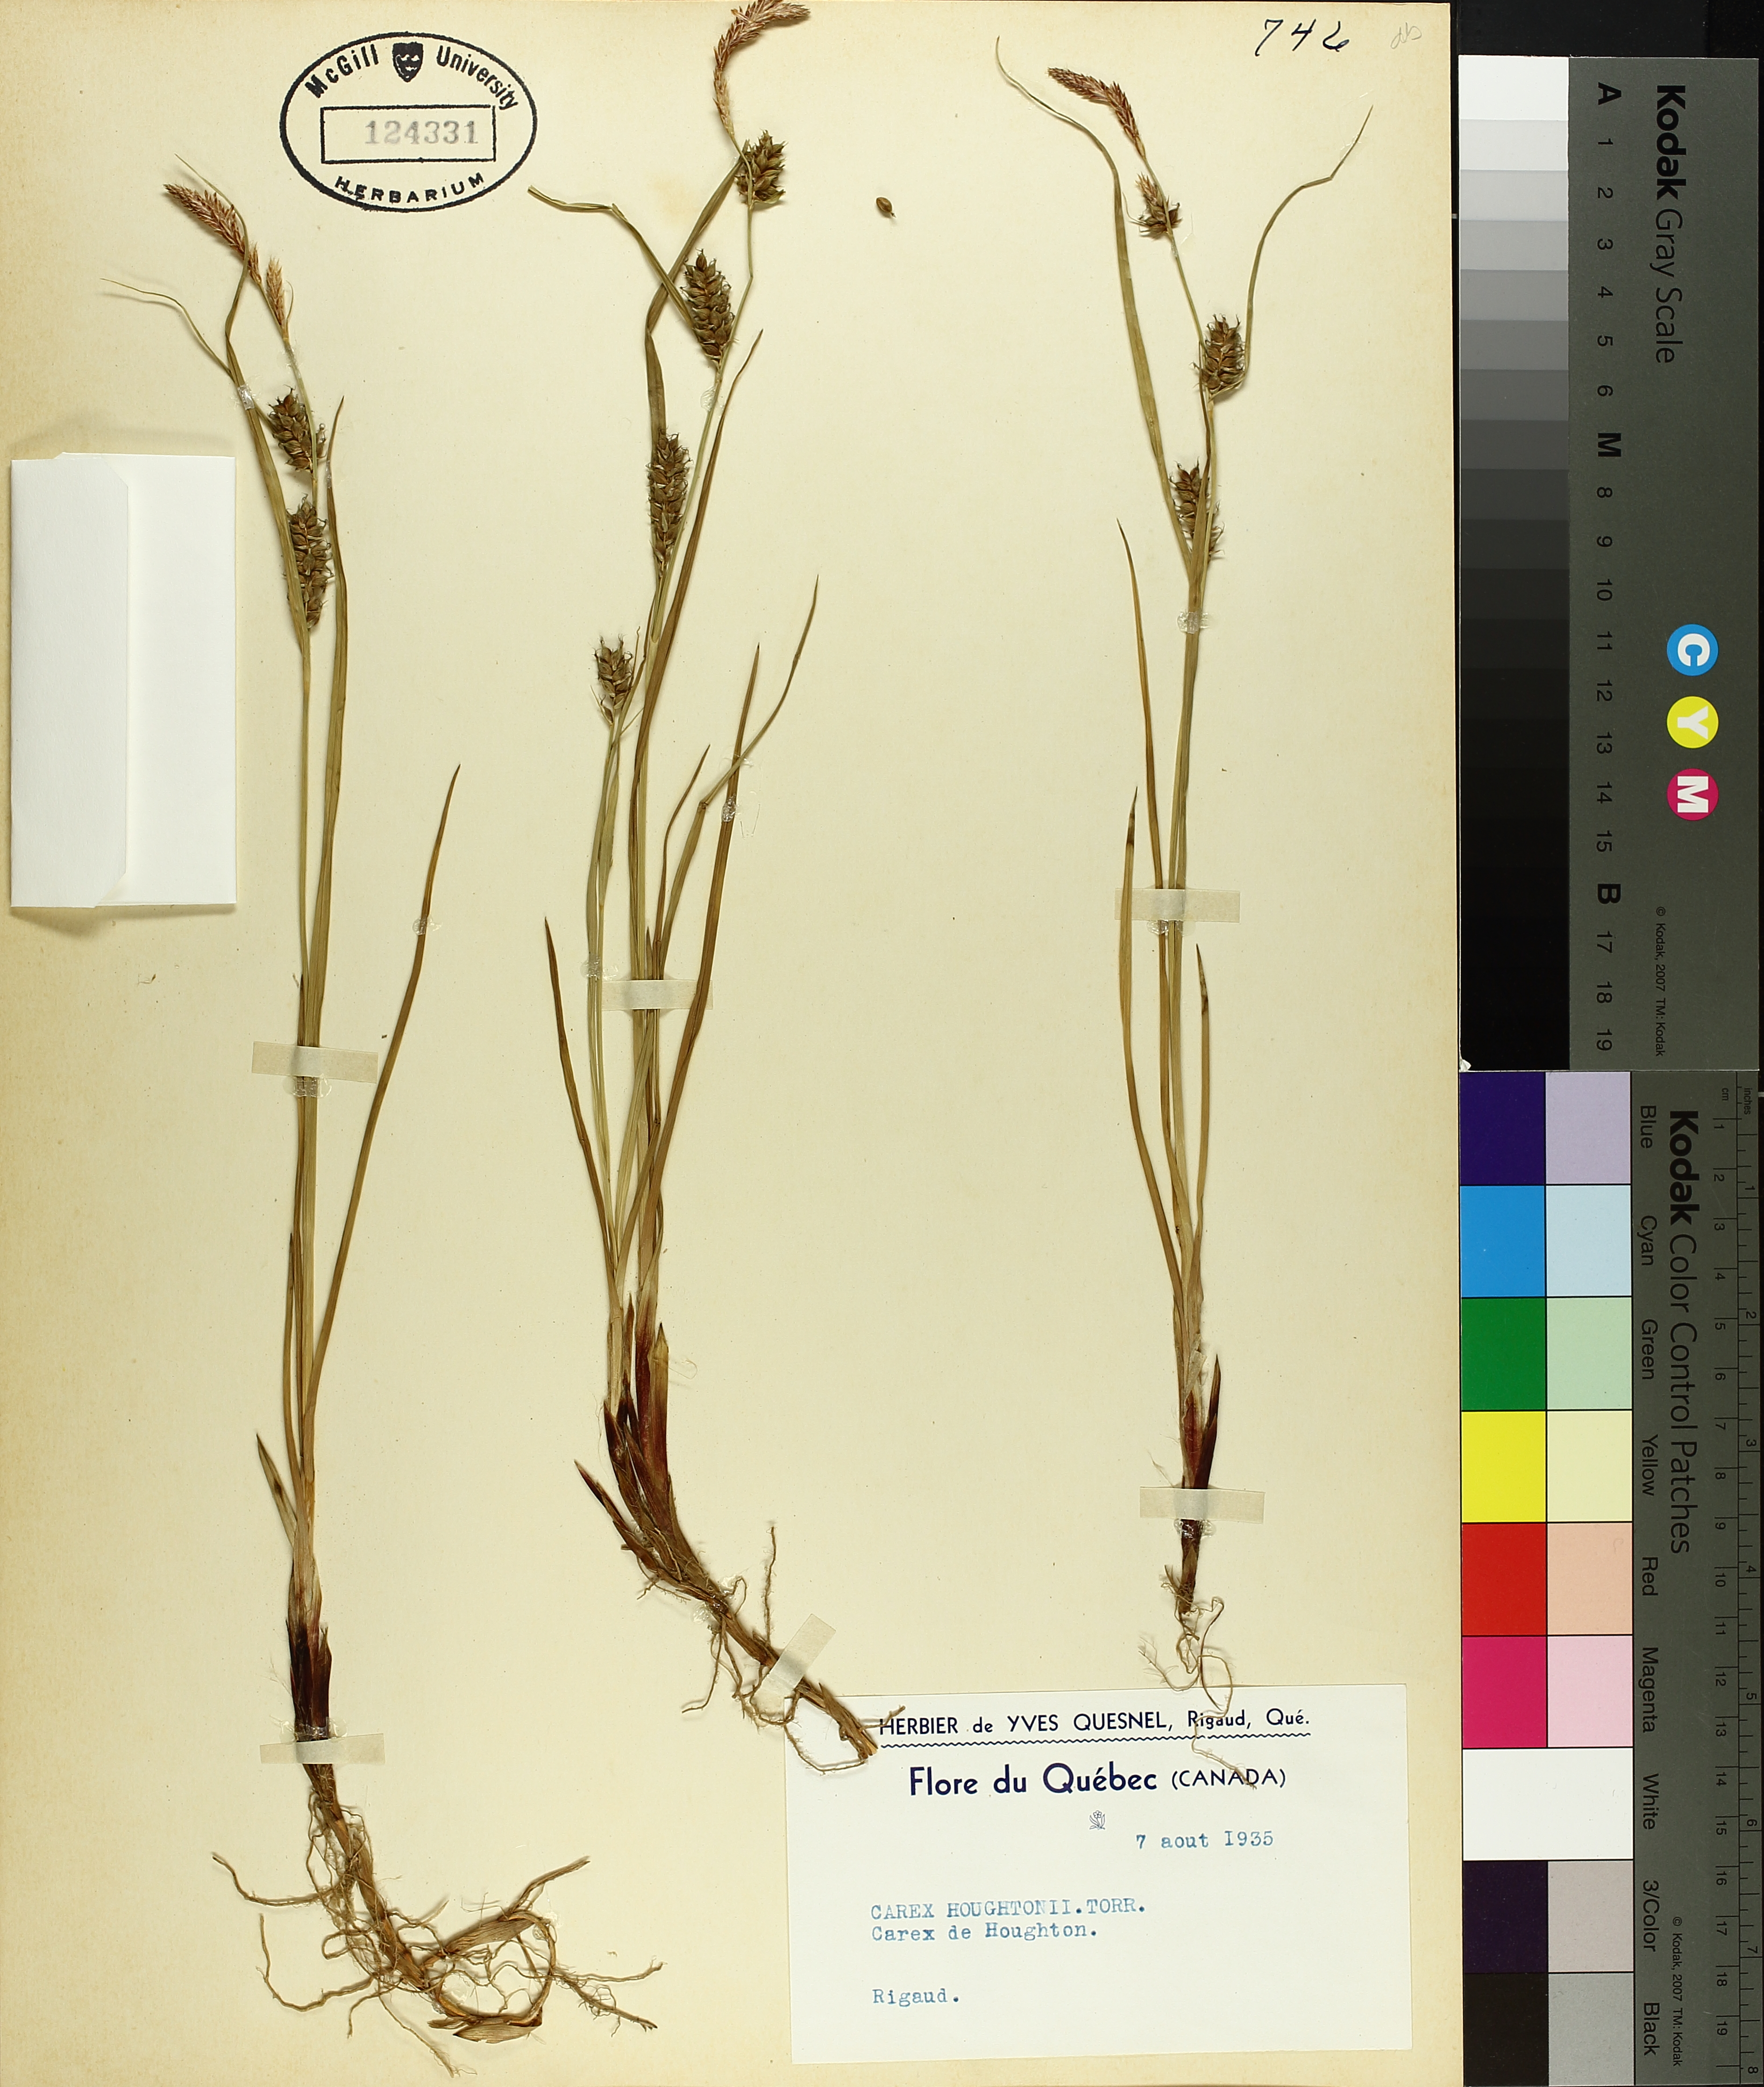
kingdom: Plantae
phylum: Tracheophyta
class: Liliopsida
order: Poales
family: Cyperaceae
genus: Carex
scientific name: Carex houghtoniana
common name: Houghton's sedge
